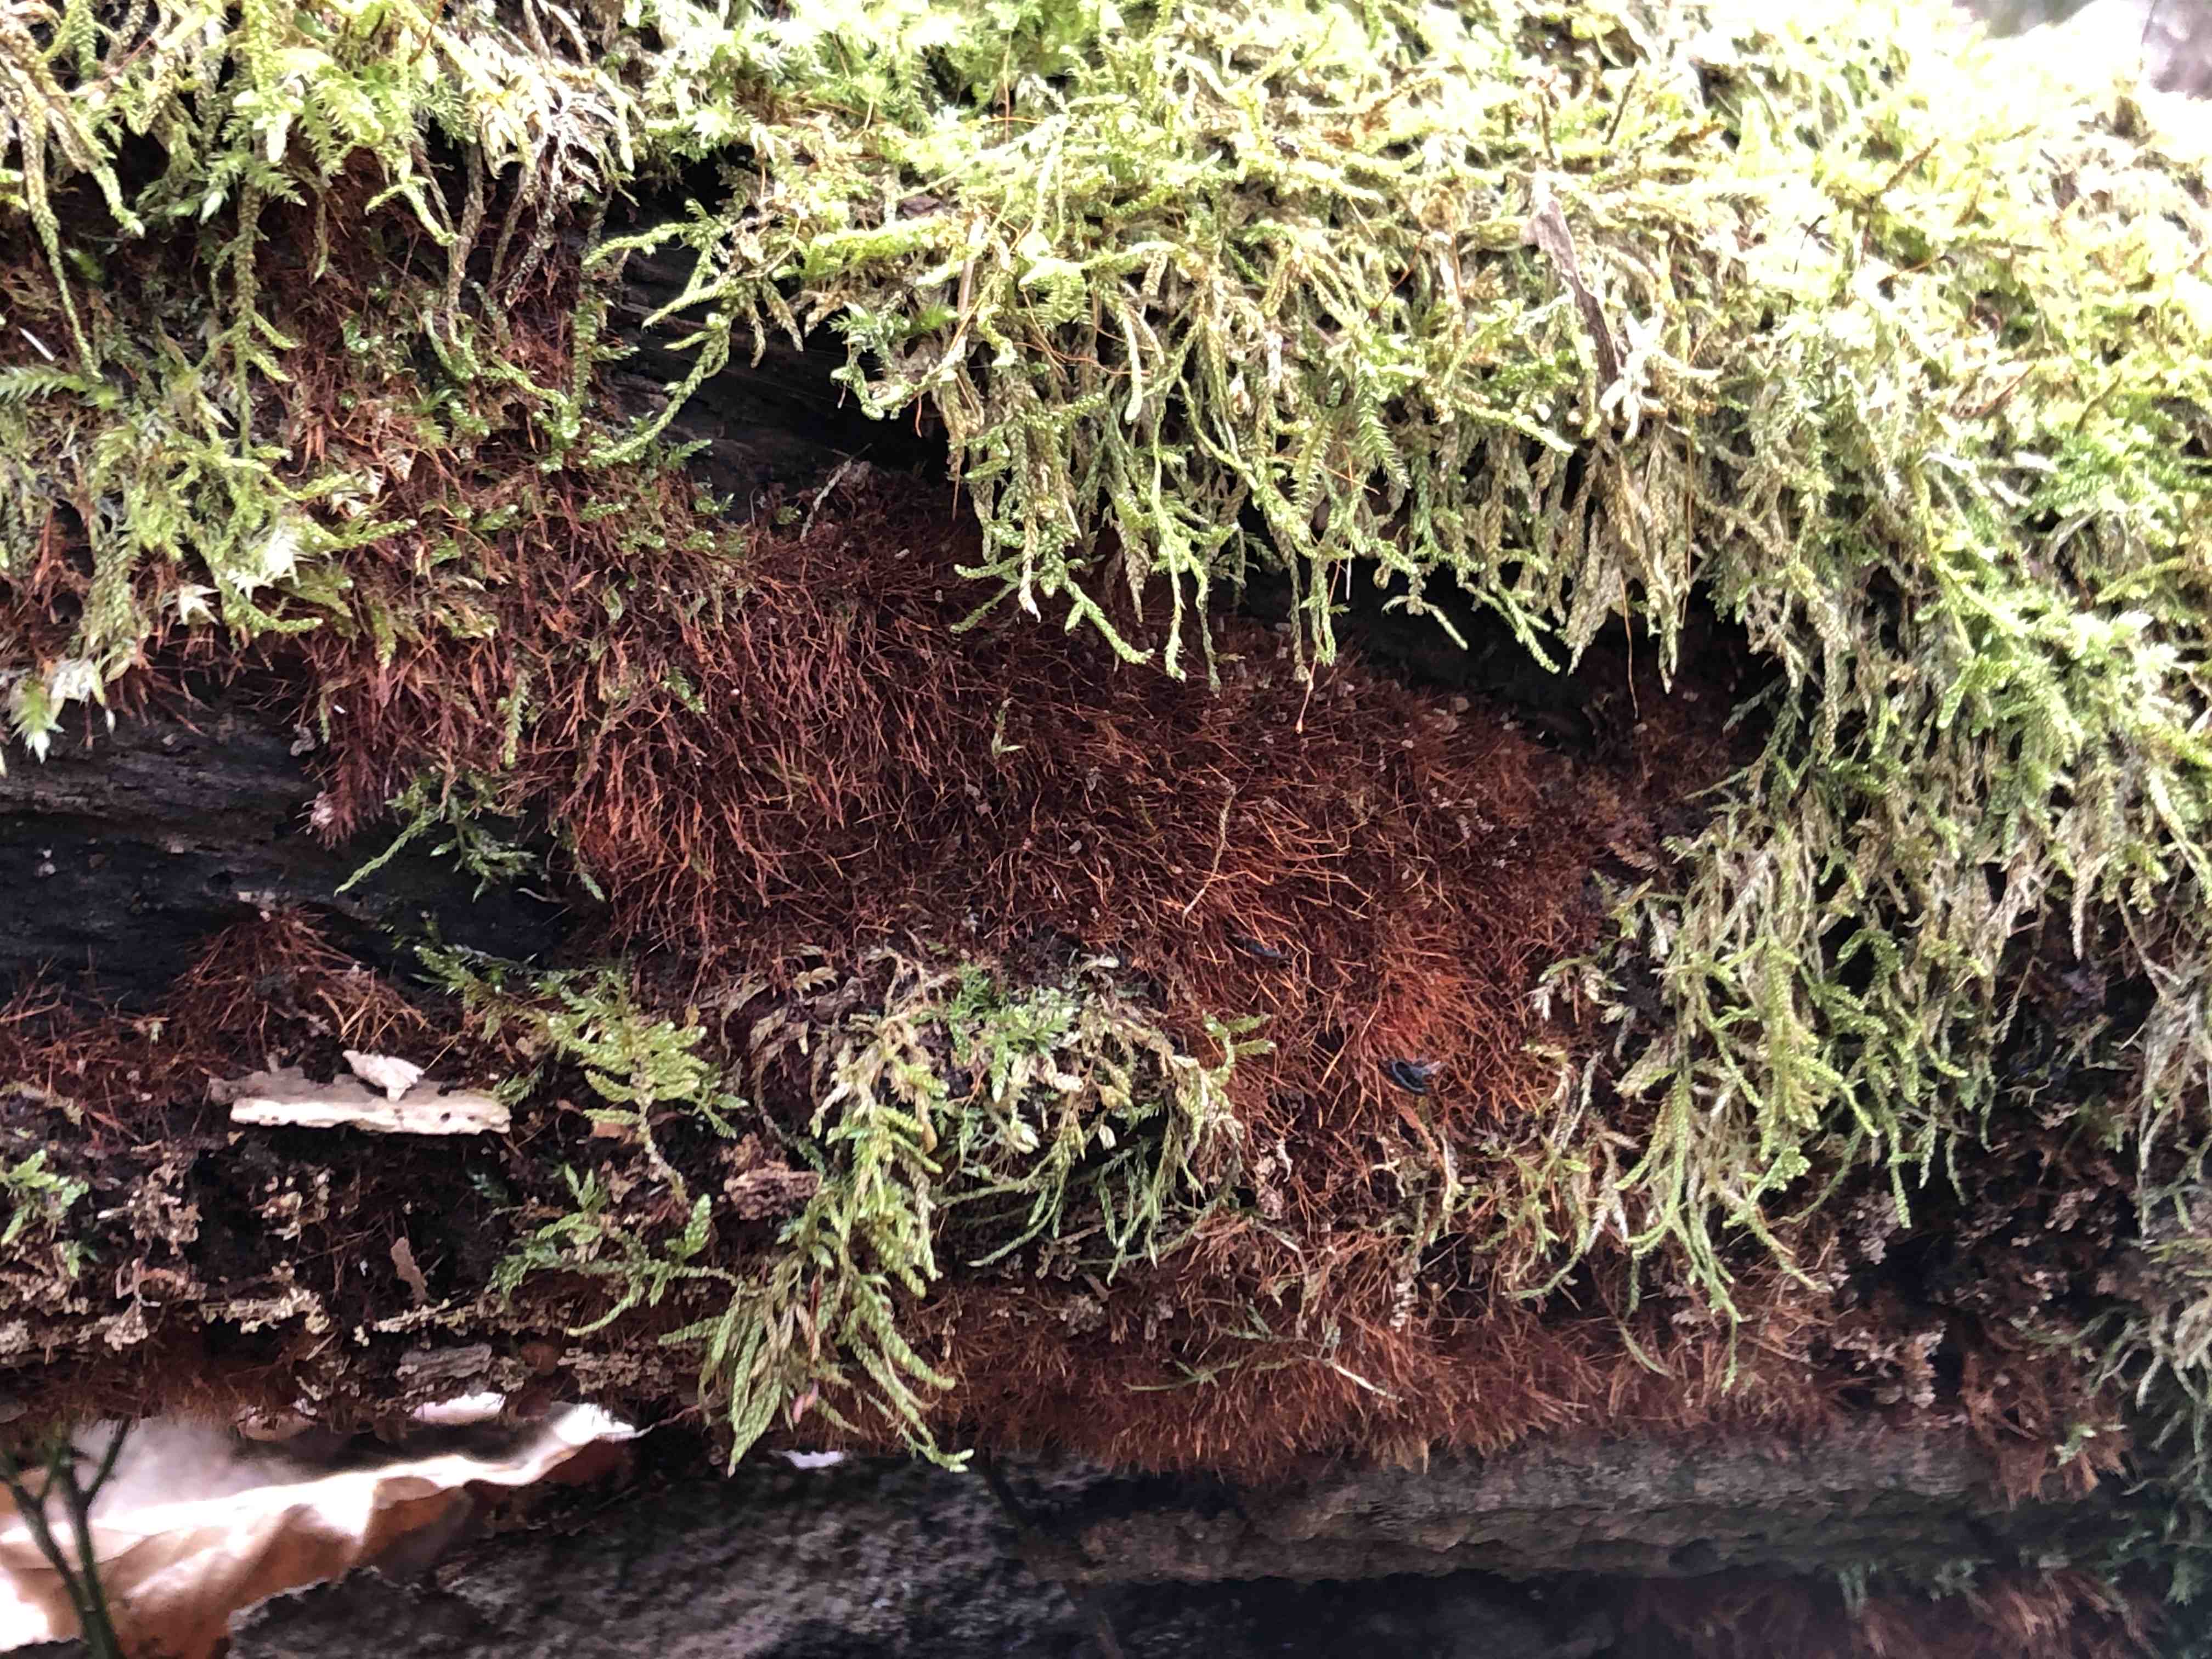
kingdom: Fungi
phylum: Basidiomycota
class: Agaricomycetes
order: Agaricales
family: Psathyrellaceae
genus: Ozonium
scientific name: Ozonium
